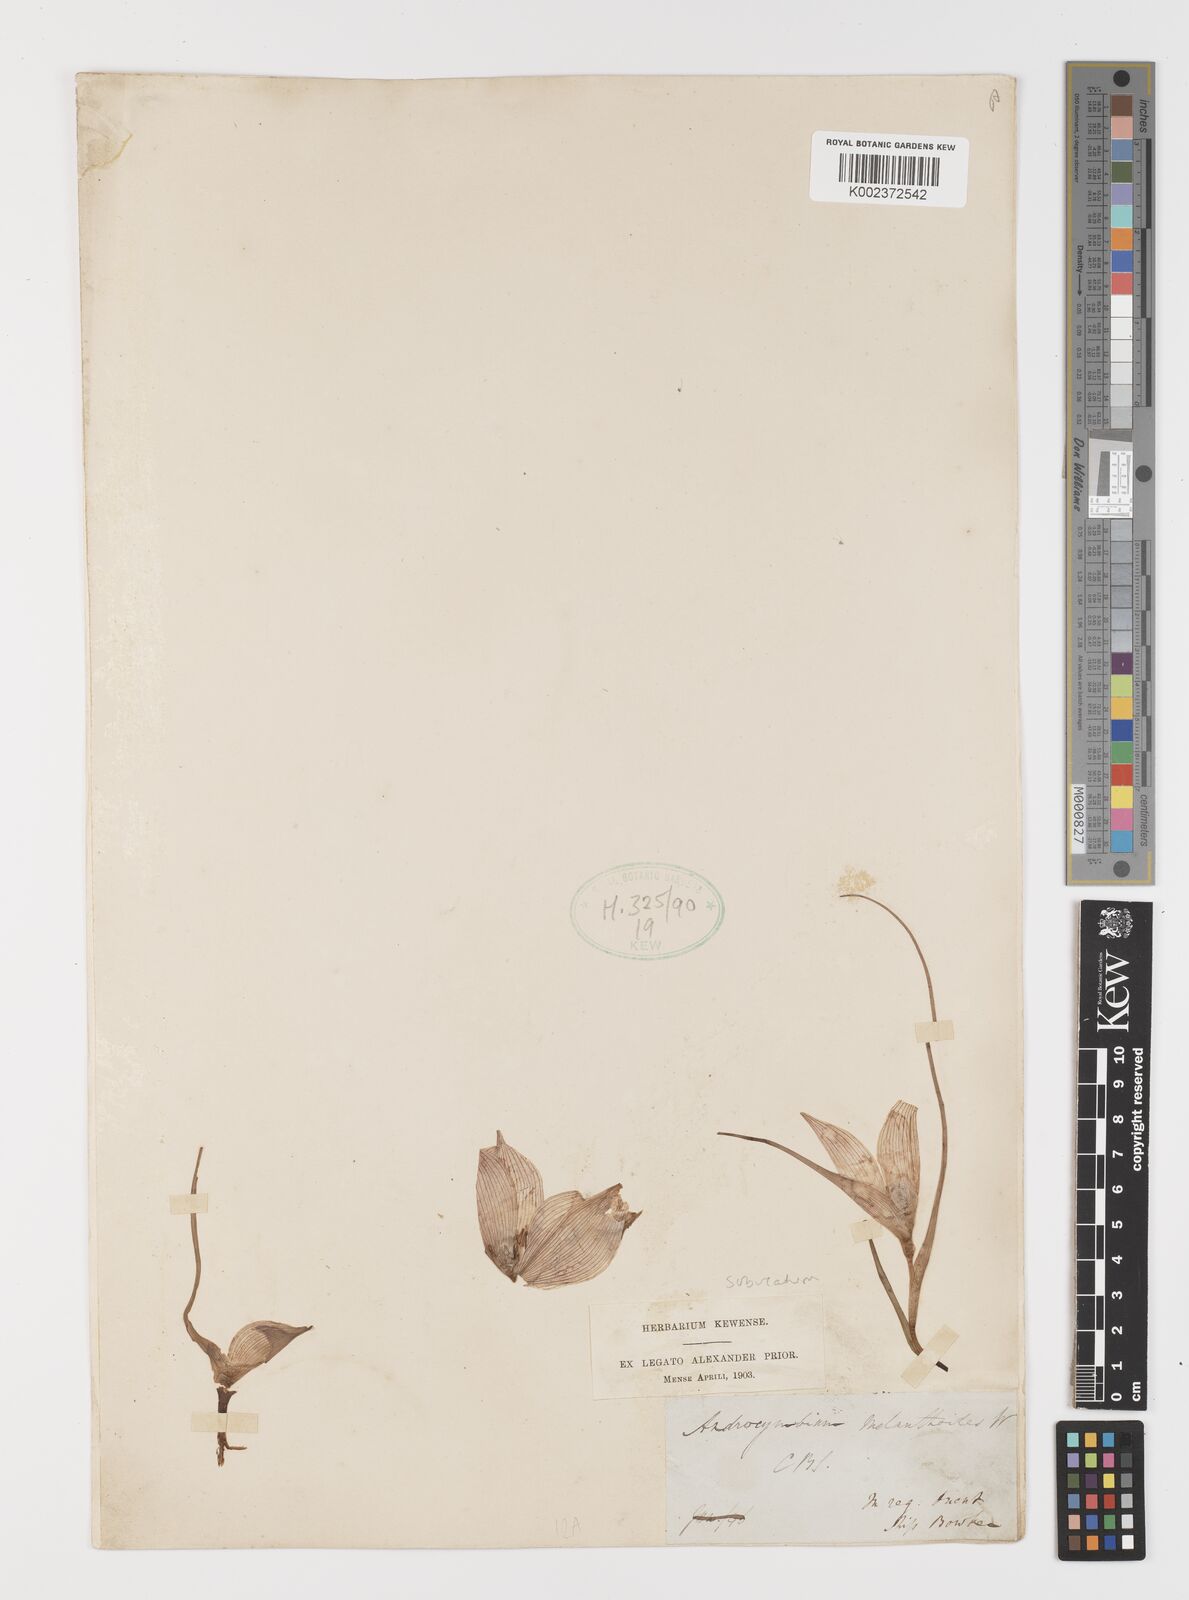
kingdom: Plantae
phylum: Tracheophyta
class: Liliopsida
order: Liliales
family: Colchicaceae
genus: Colchicum
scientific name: Colchicum melanthioides
